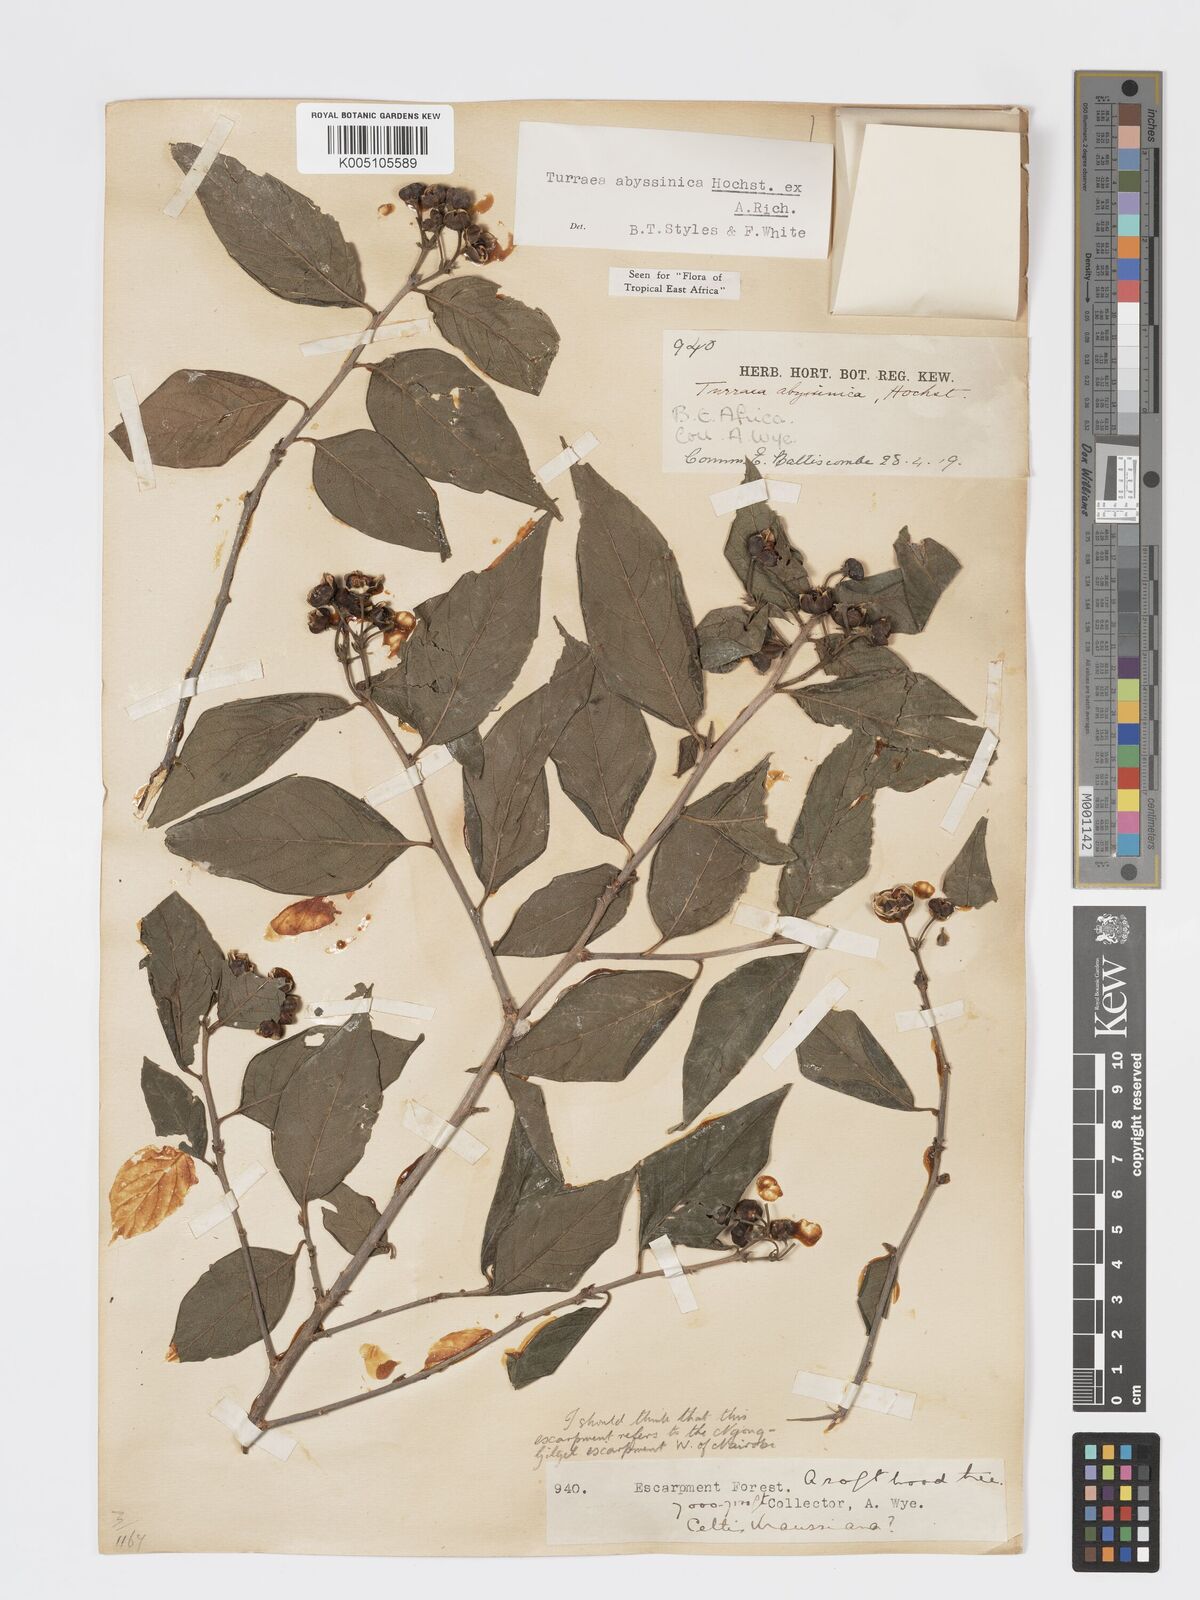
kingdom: Plantae
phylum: Tracheophyta
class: Magnoliopsida
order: Sapindales
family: Meliaceae
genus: Turraea
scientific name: Turraea abyssinica
